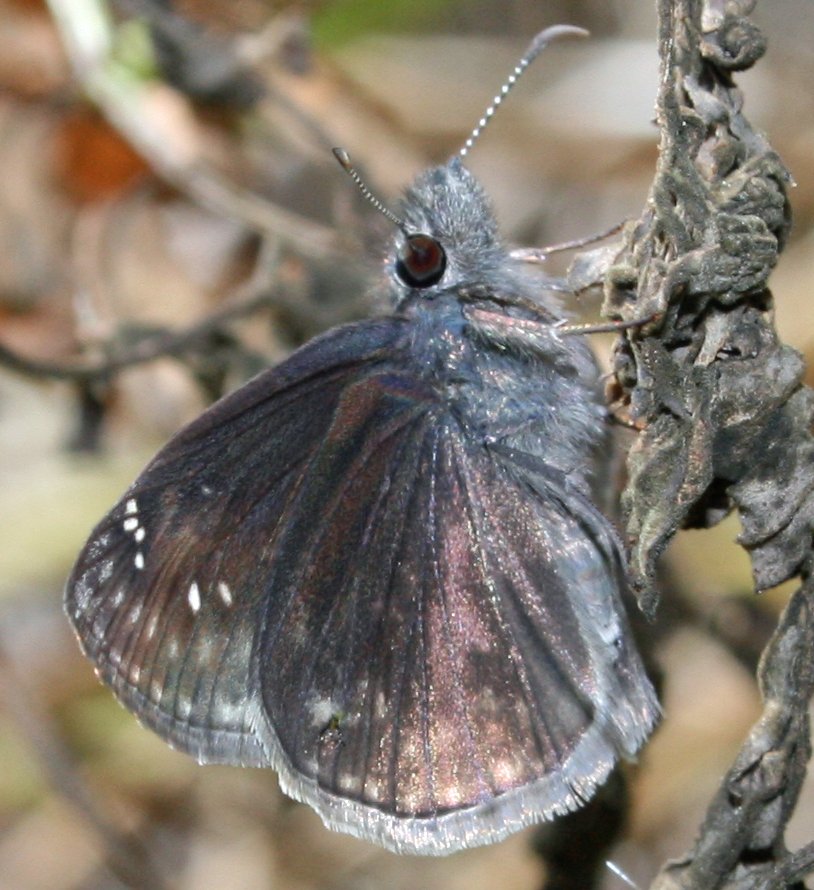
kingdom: Animalia
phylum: Arthropoda
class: Insecta
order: Lepidoptera
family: Hesperiidae
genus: Gesta
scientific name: Gesta
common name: Wild Indigo Duskywing
